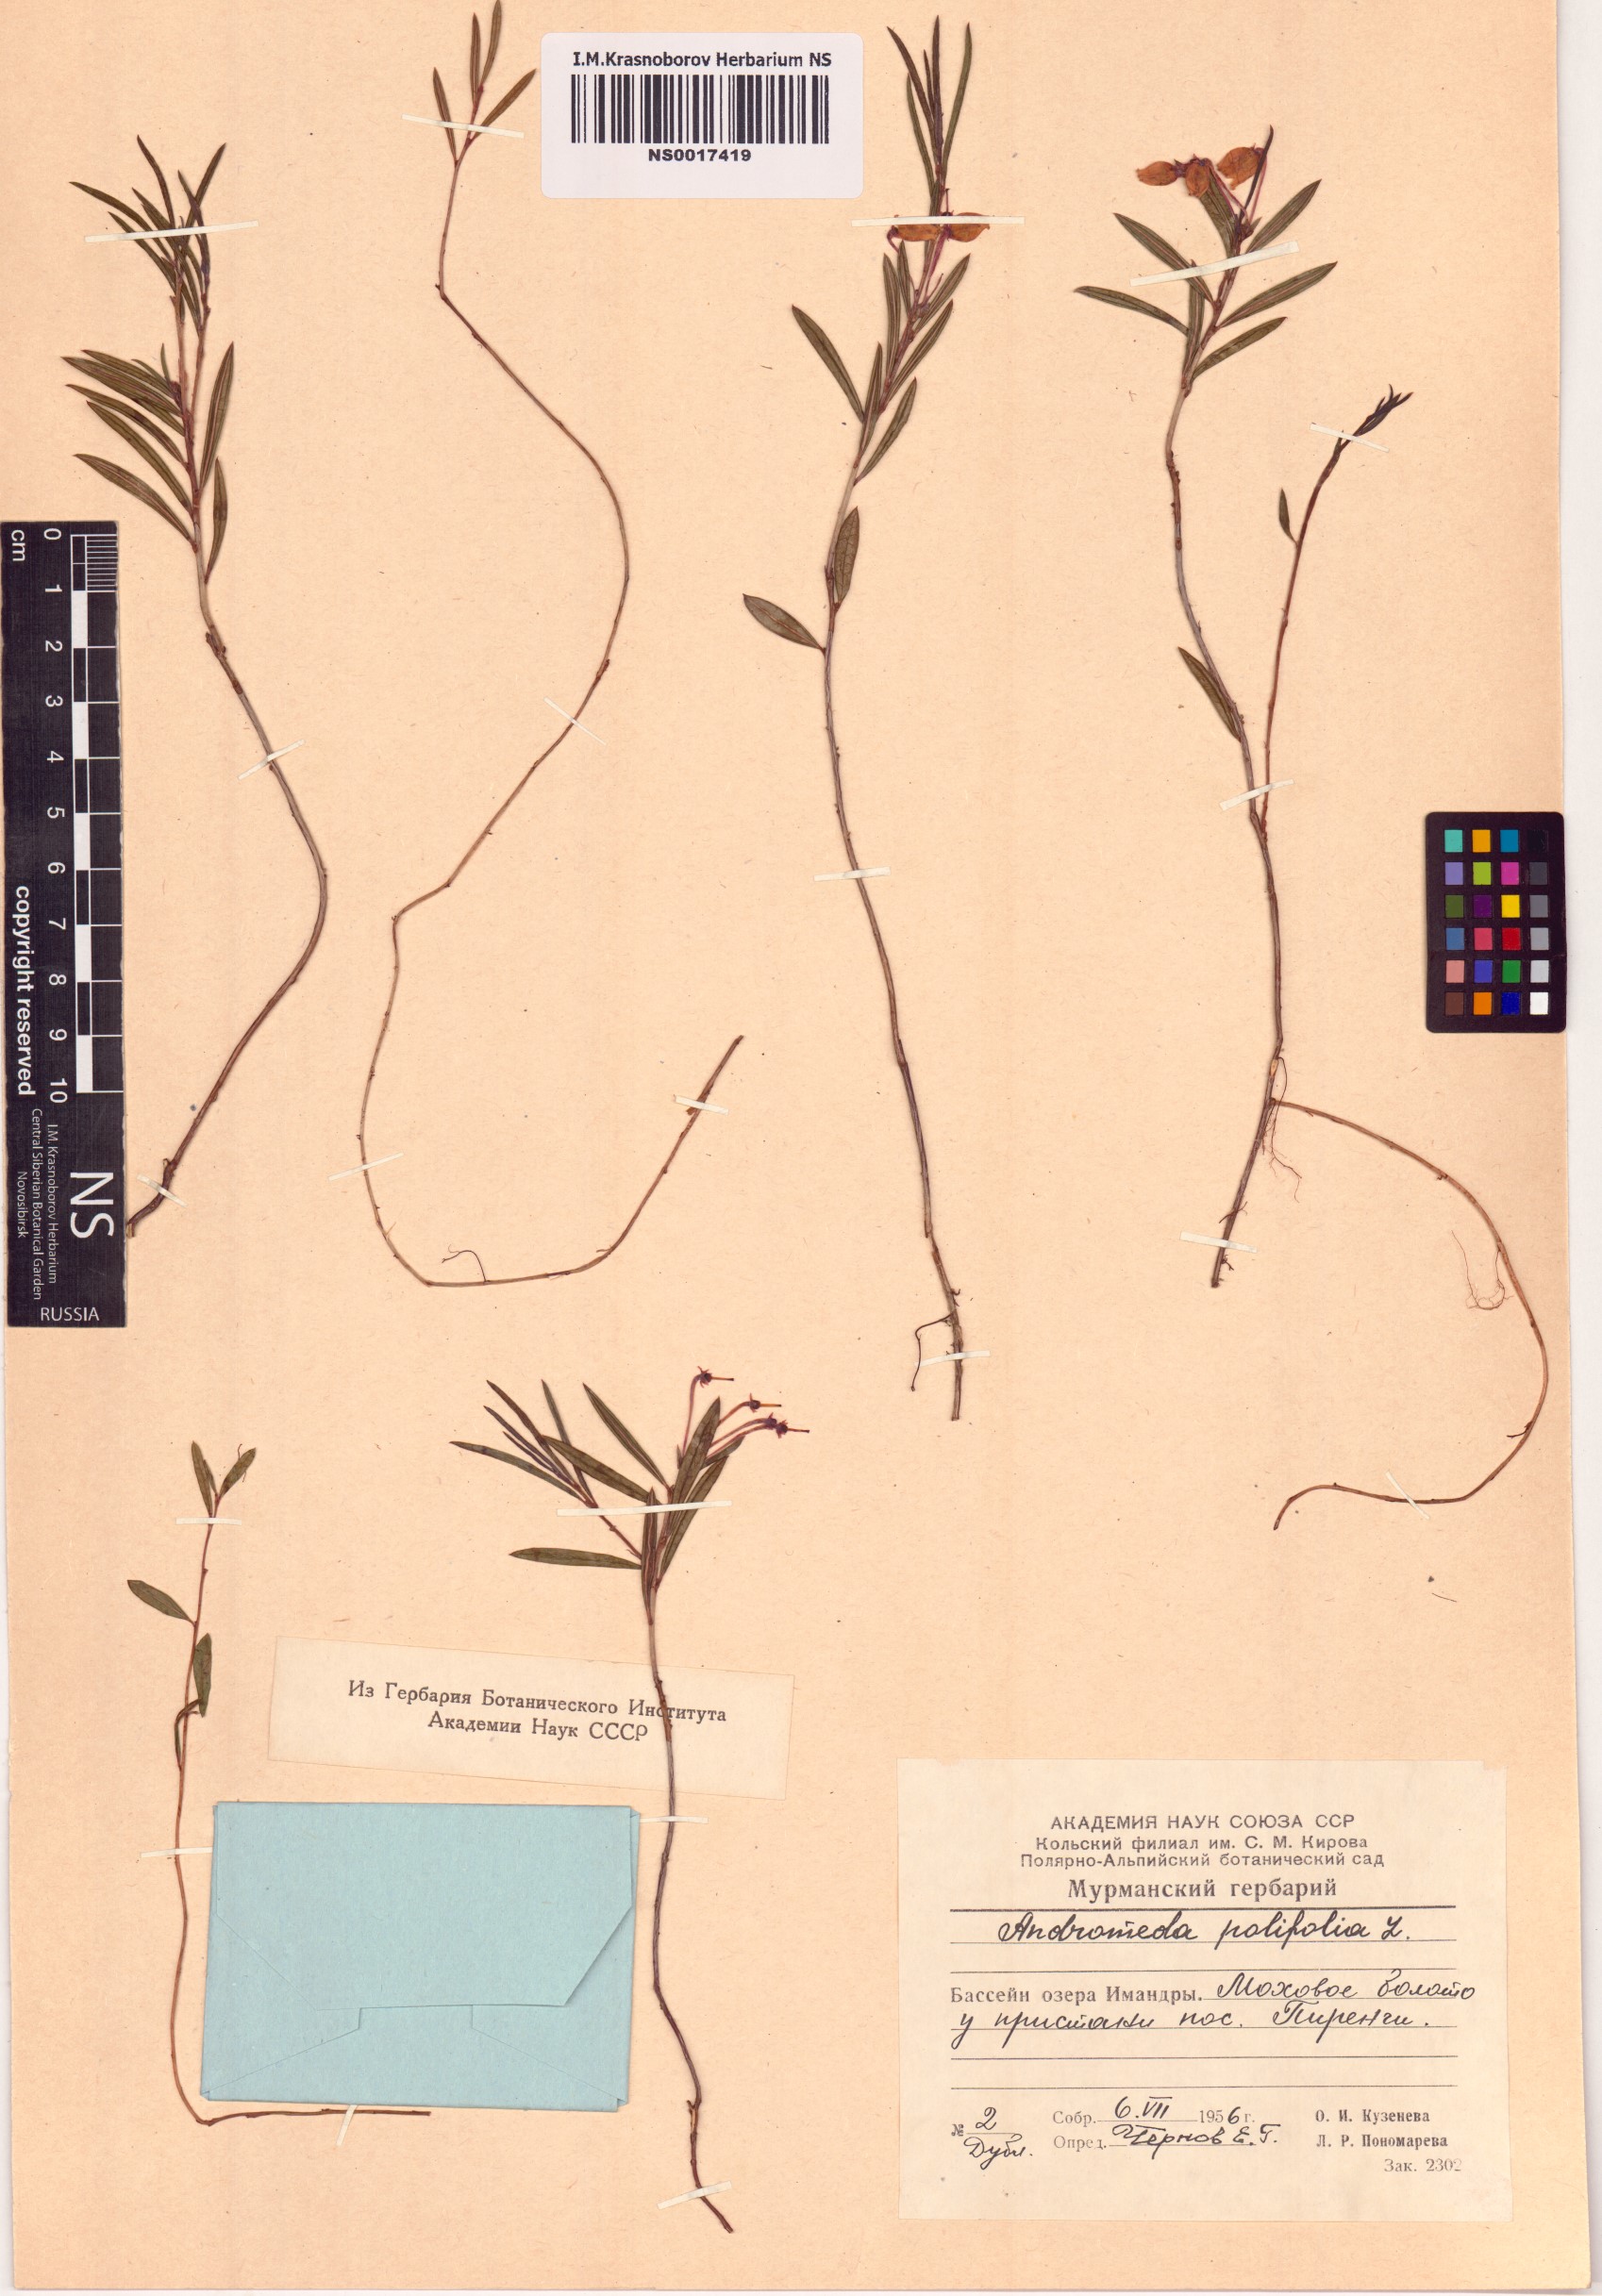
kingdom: Plantae
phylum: Tracheophyta
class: Magnoliopsida
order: Ericales
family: Ericaceae
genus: Andromeda
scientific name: Andromeda polifolia
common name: Bog-rosemary
